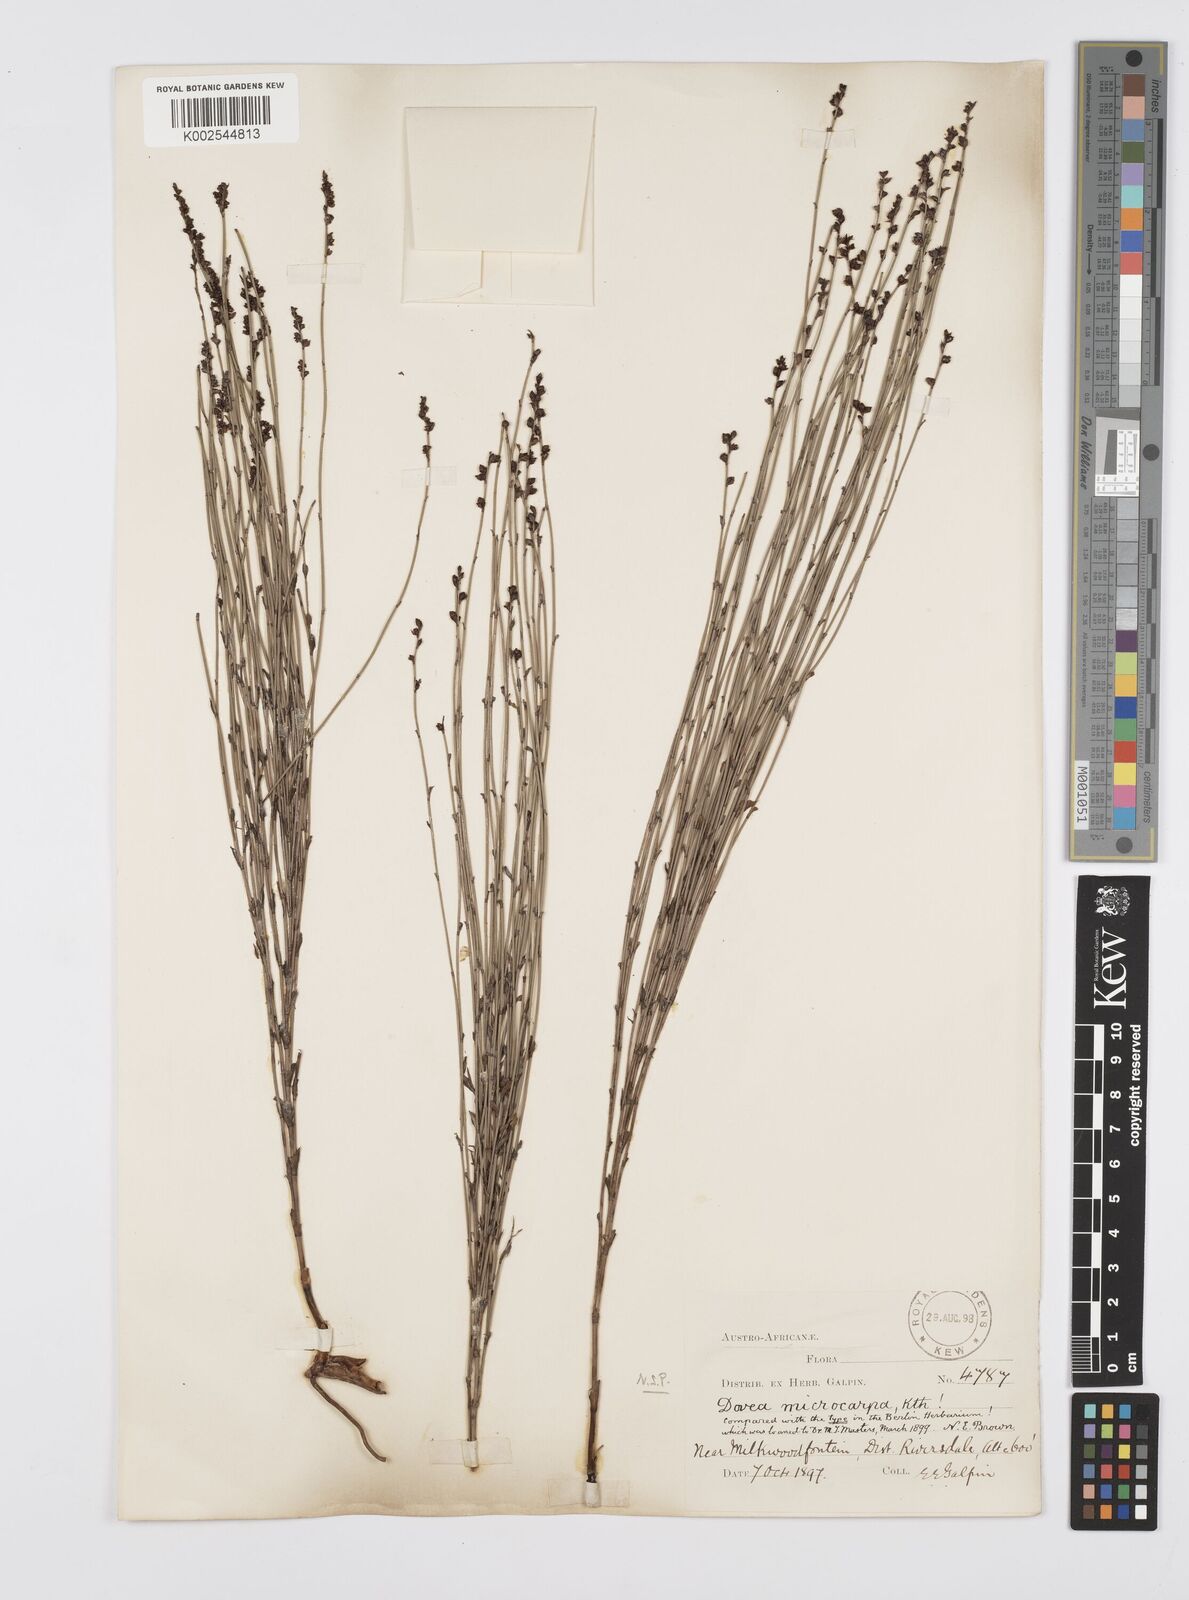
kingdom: Plantae
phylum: Tracheophyta
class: Liliopsida
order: Poales
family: Restionaceae
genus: Elegia
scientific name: Elegia microcarpa
